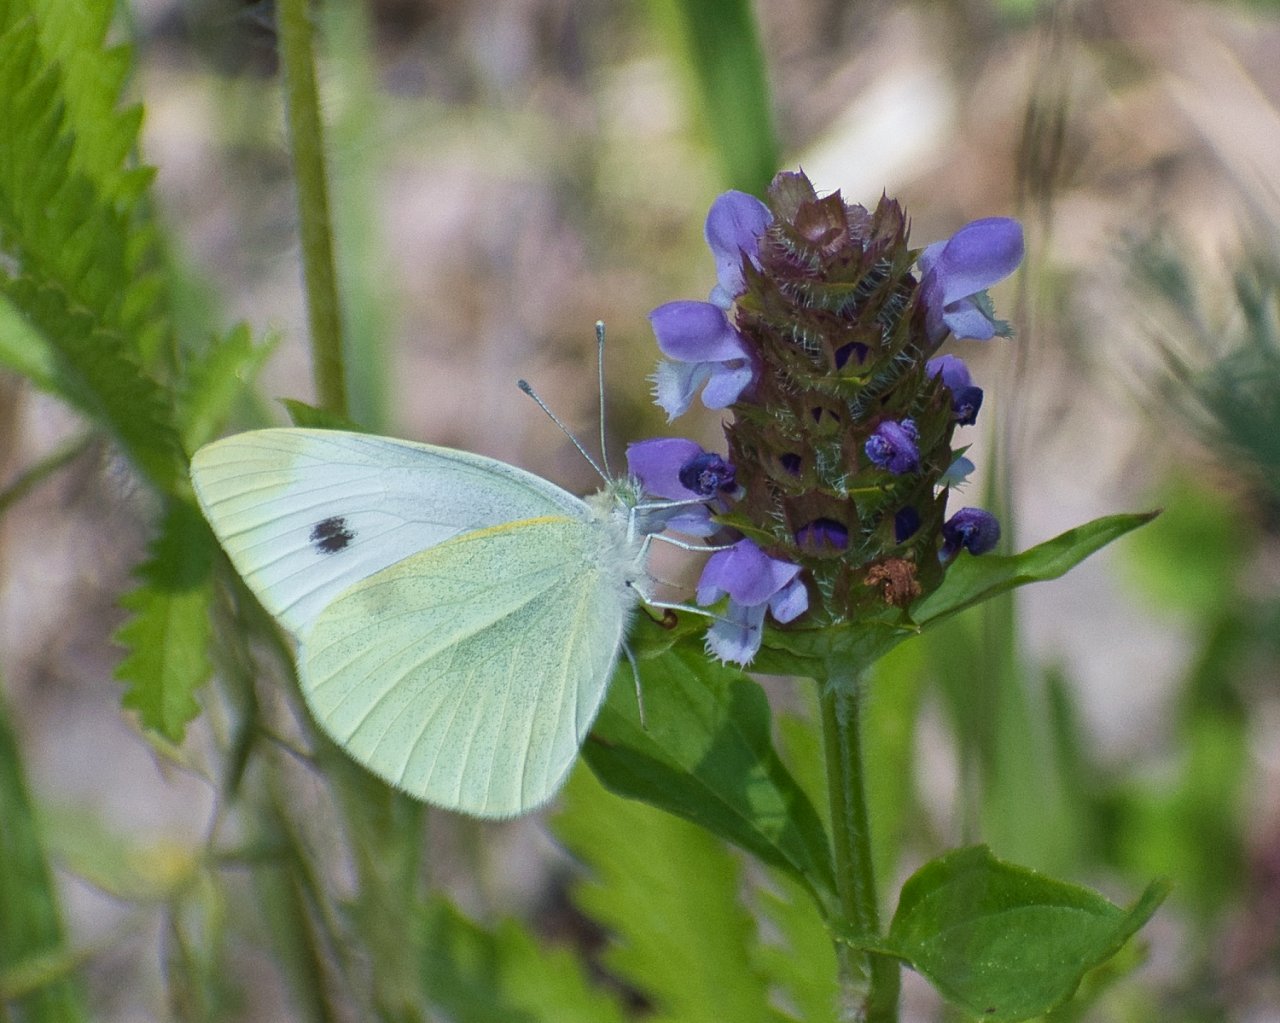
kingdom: Animalia
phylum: Arthropoda
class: Insecta
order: Lepidoptera
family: Pieridae
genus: Pieris
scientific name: Pieris rapae
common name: Cabbage White
